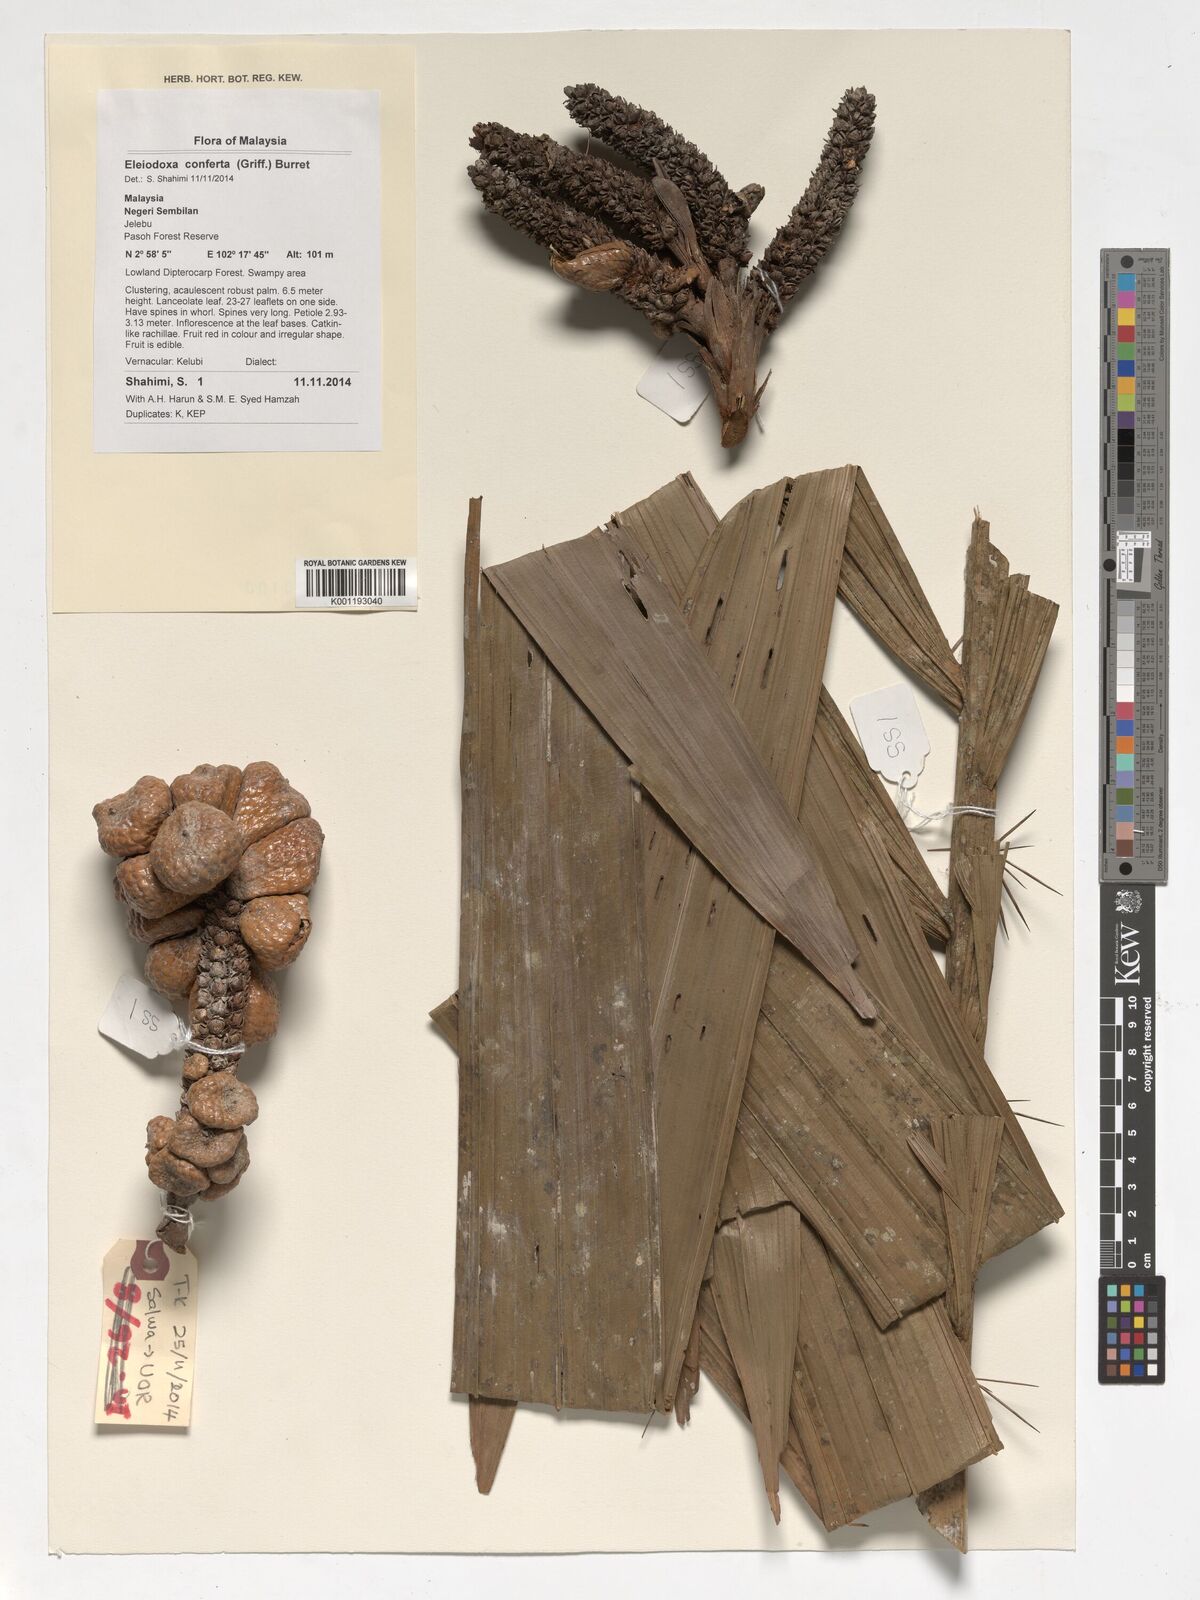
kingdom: Plantae
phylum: Tracheophyta
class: Liliopsida
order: Arecales
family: Arecaceae
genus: Eleiodoxa
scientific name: Eleiodoxa conferta
